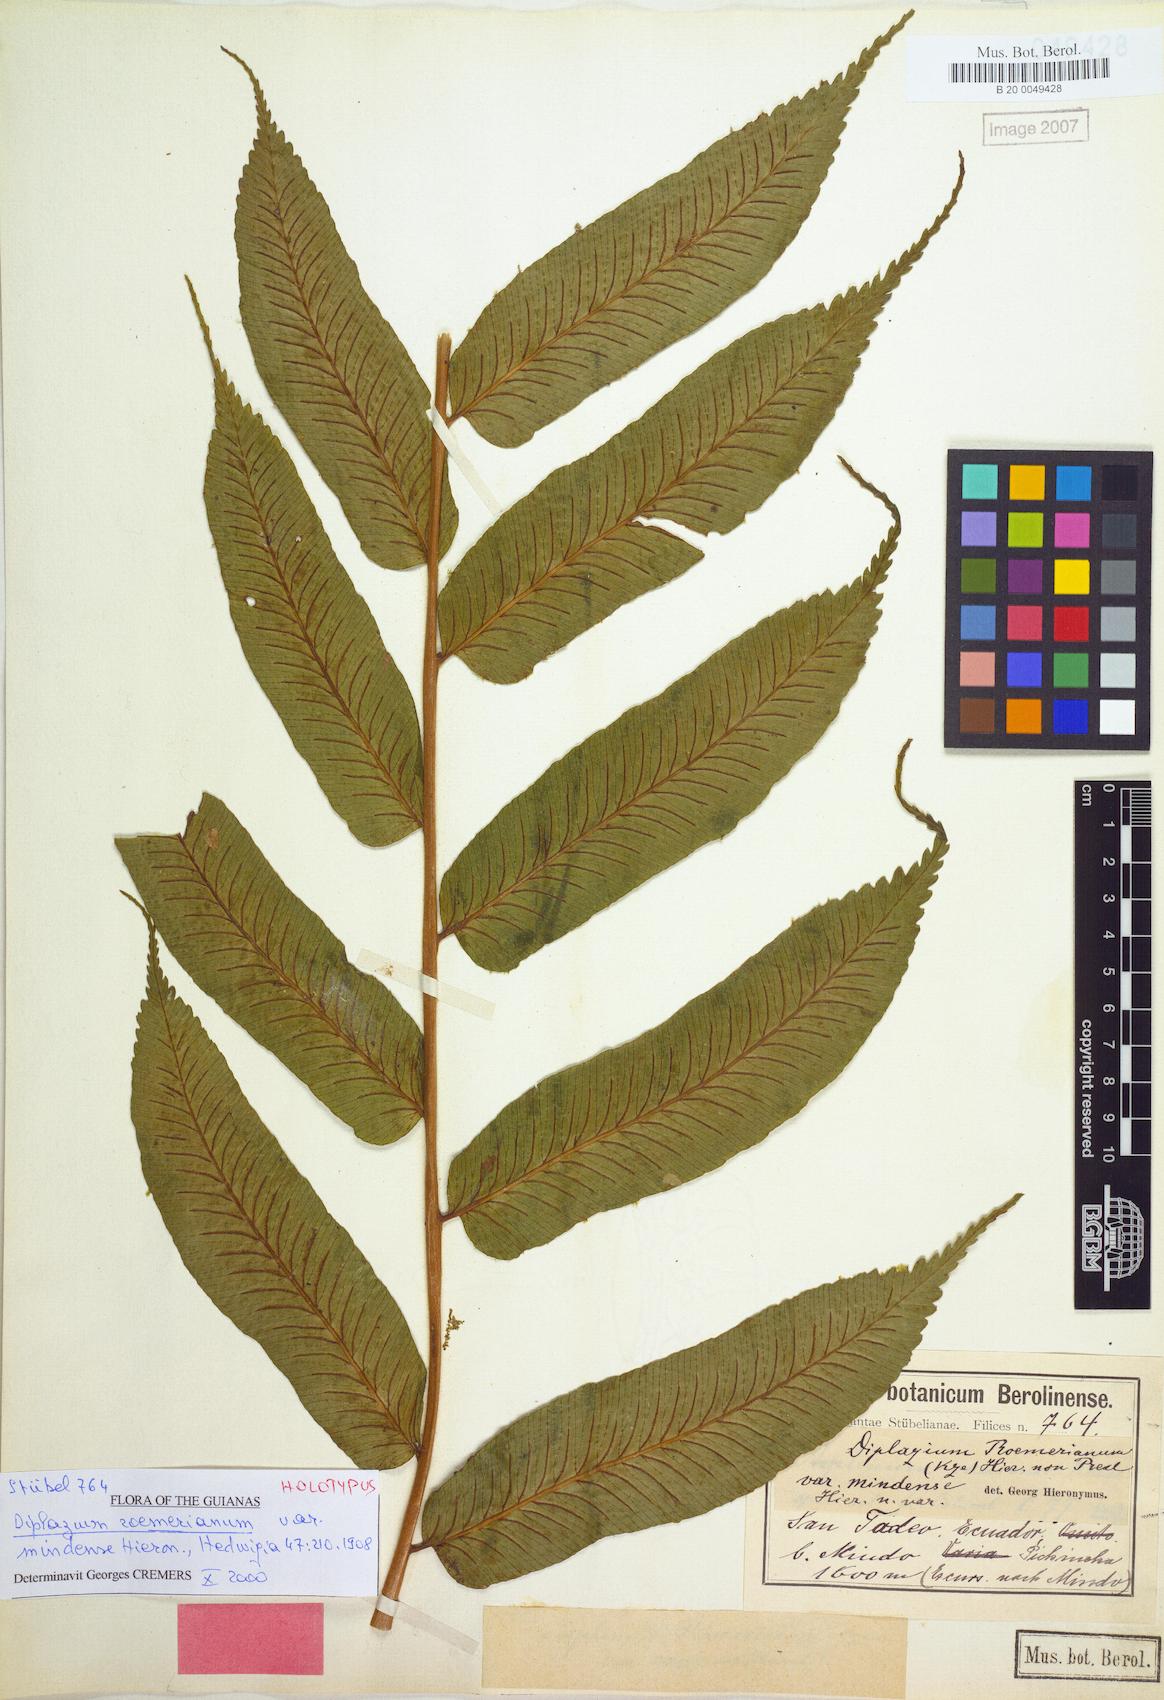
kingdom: Plantae
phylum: Tracheophyta
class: Polypodiopsida
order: Polypodiales
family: Athyriaceae
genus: Diplazium
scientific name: Diplazium roemerianum
